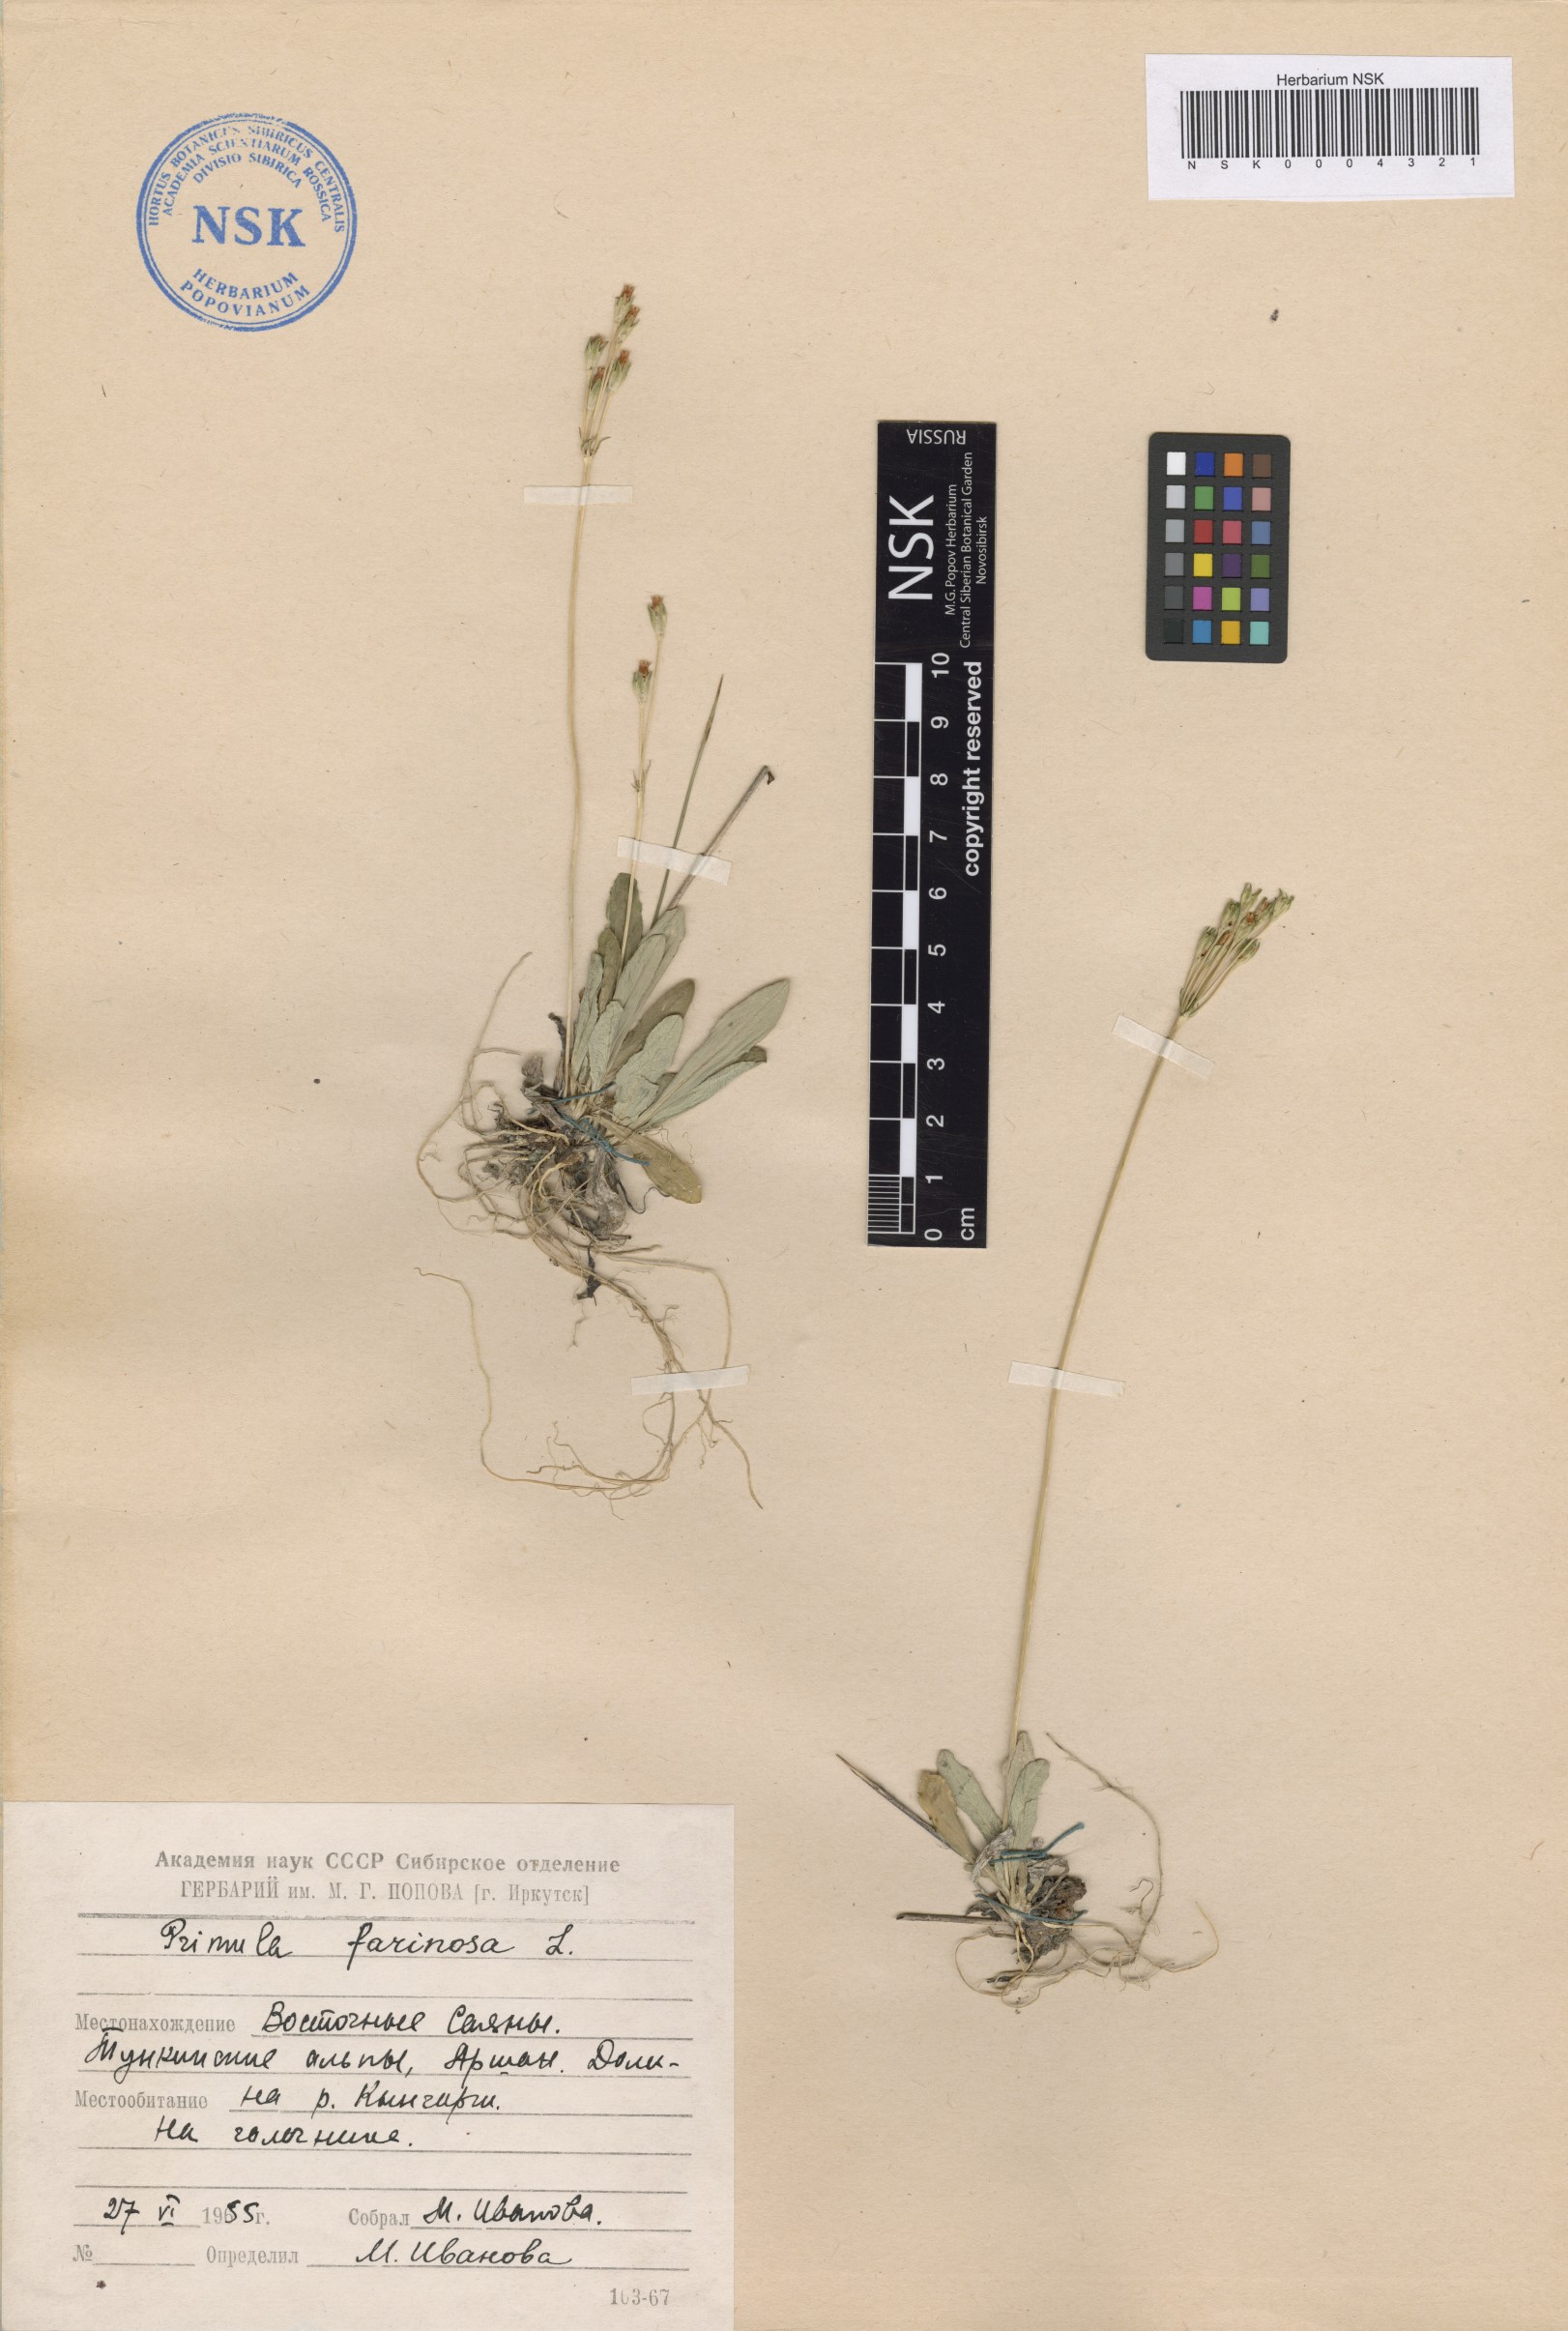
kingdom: Plantae
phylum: Tracheophyta
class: Magnoliopsida
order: Ericales
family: Primulaceae
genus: Primula
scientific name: Primula farinosa
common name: Bird's-eye primrose
